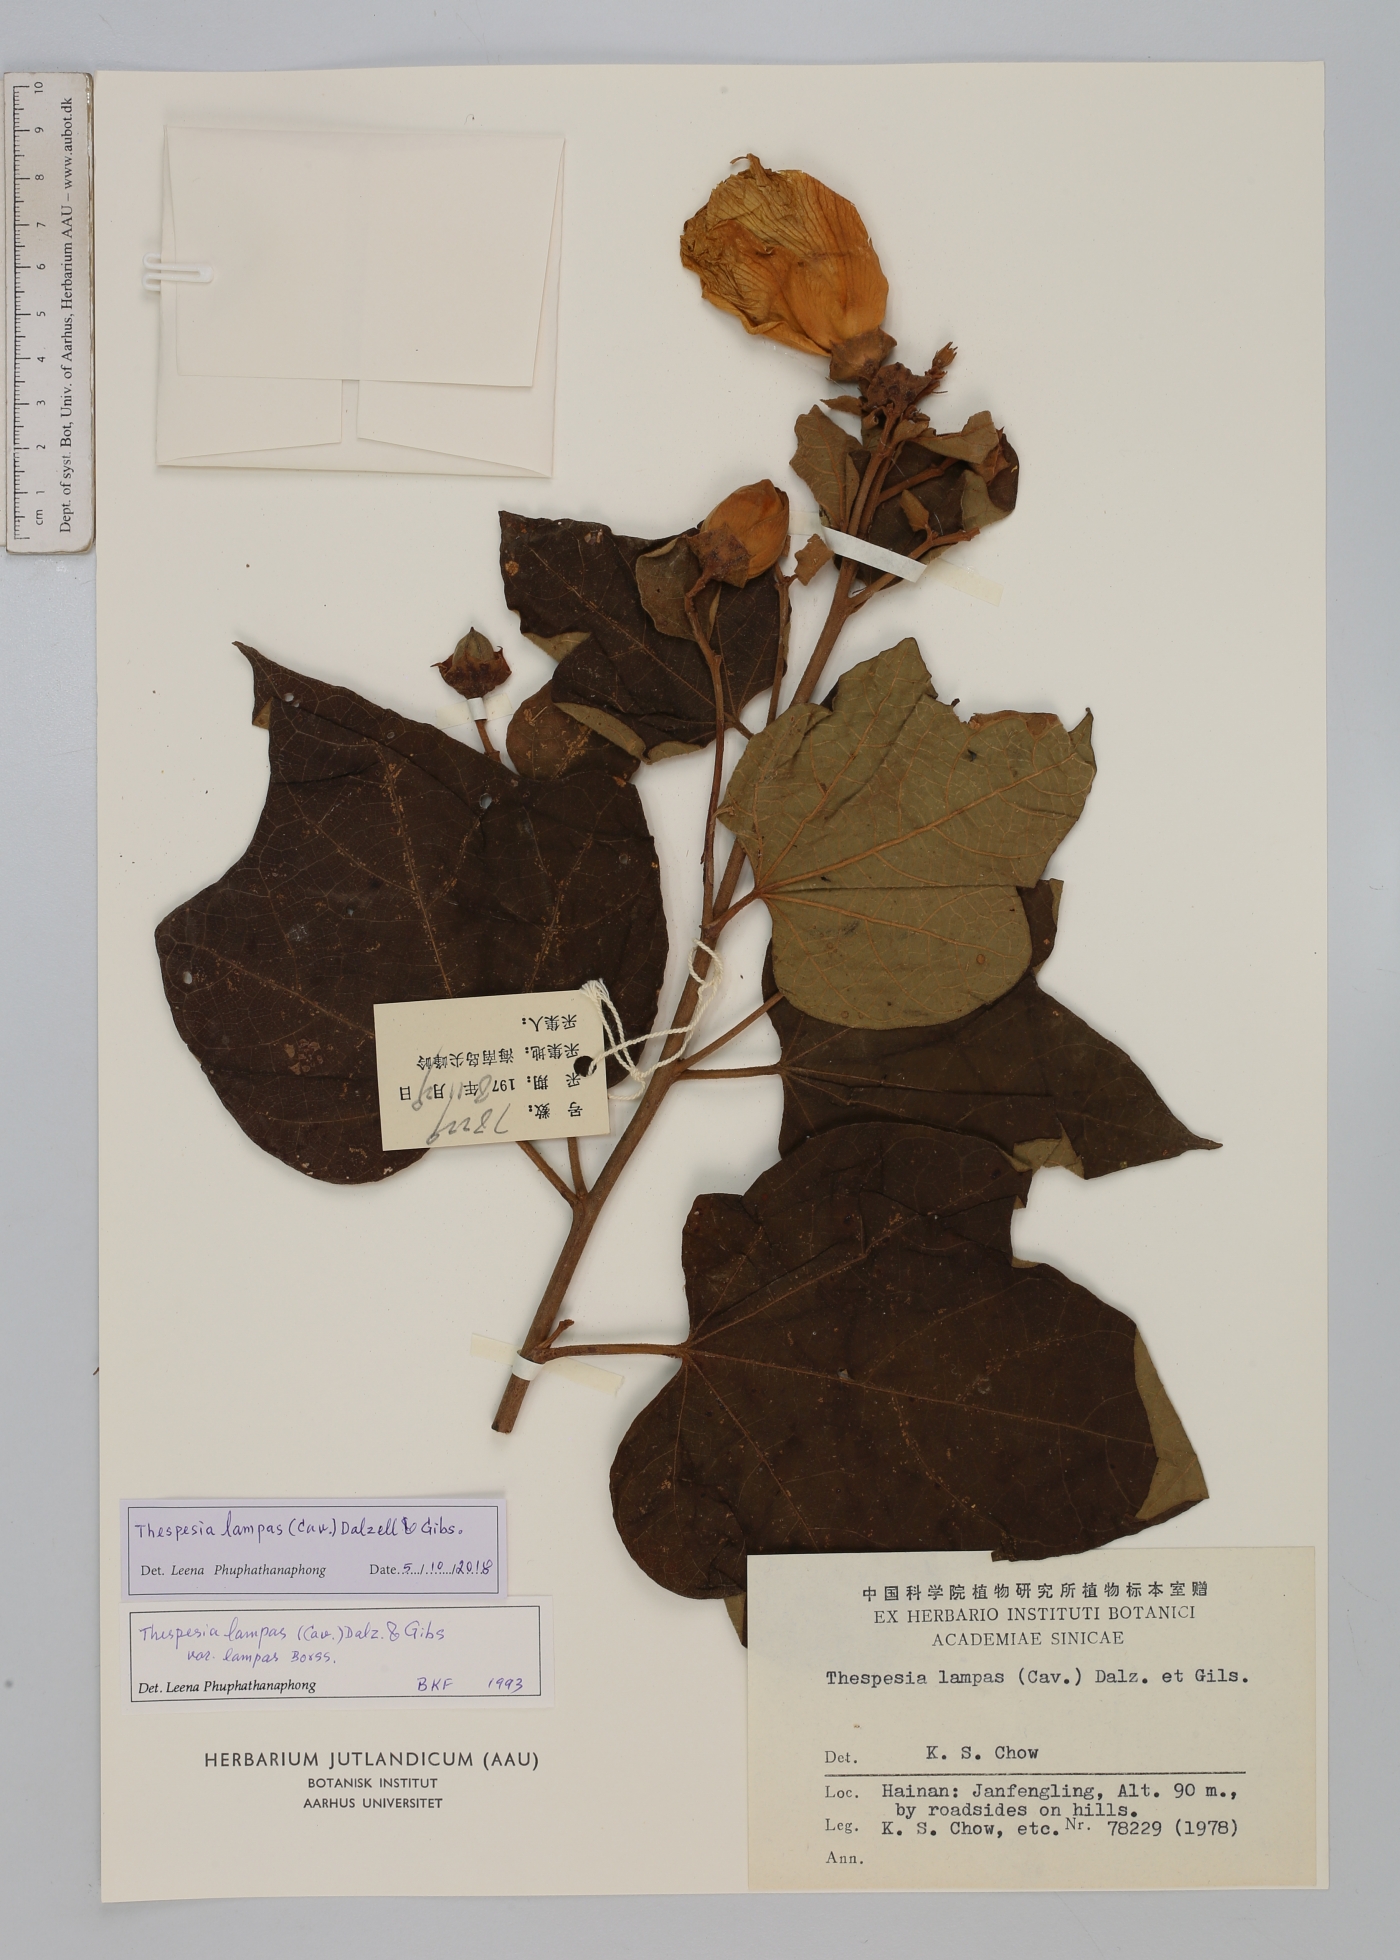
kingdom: Plantae
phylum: Tracheophyta
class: Magnoliopsida
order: Malvales
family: Malvaceae
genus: Thespesia
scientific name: Thespesia lampas
